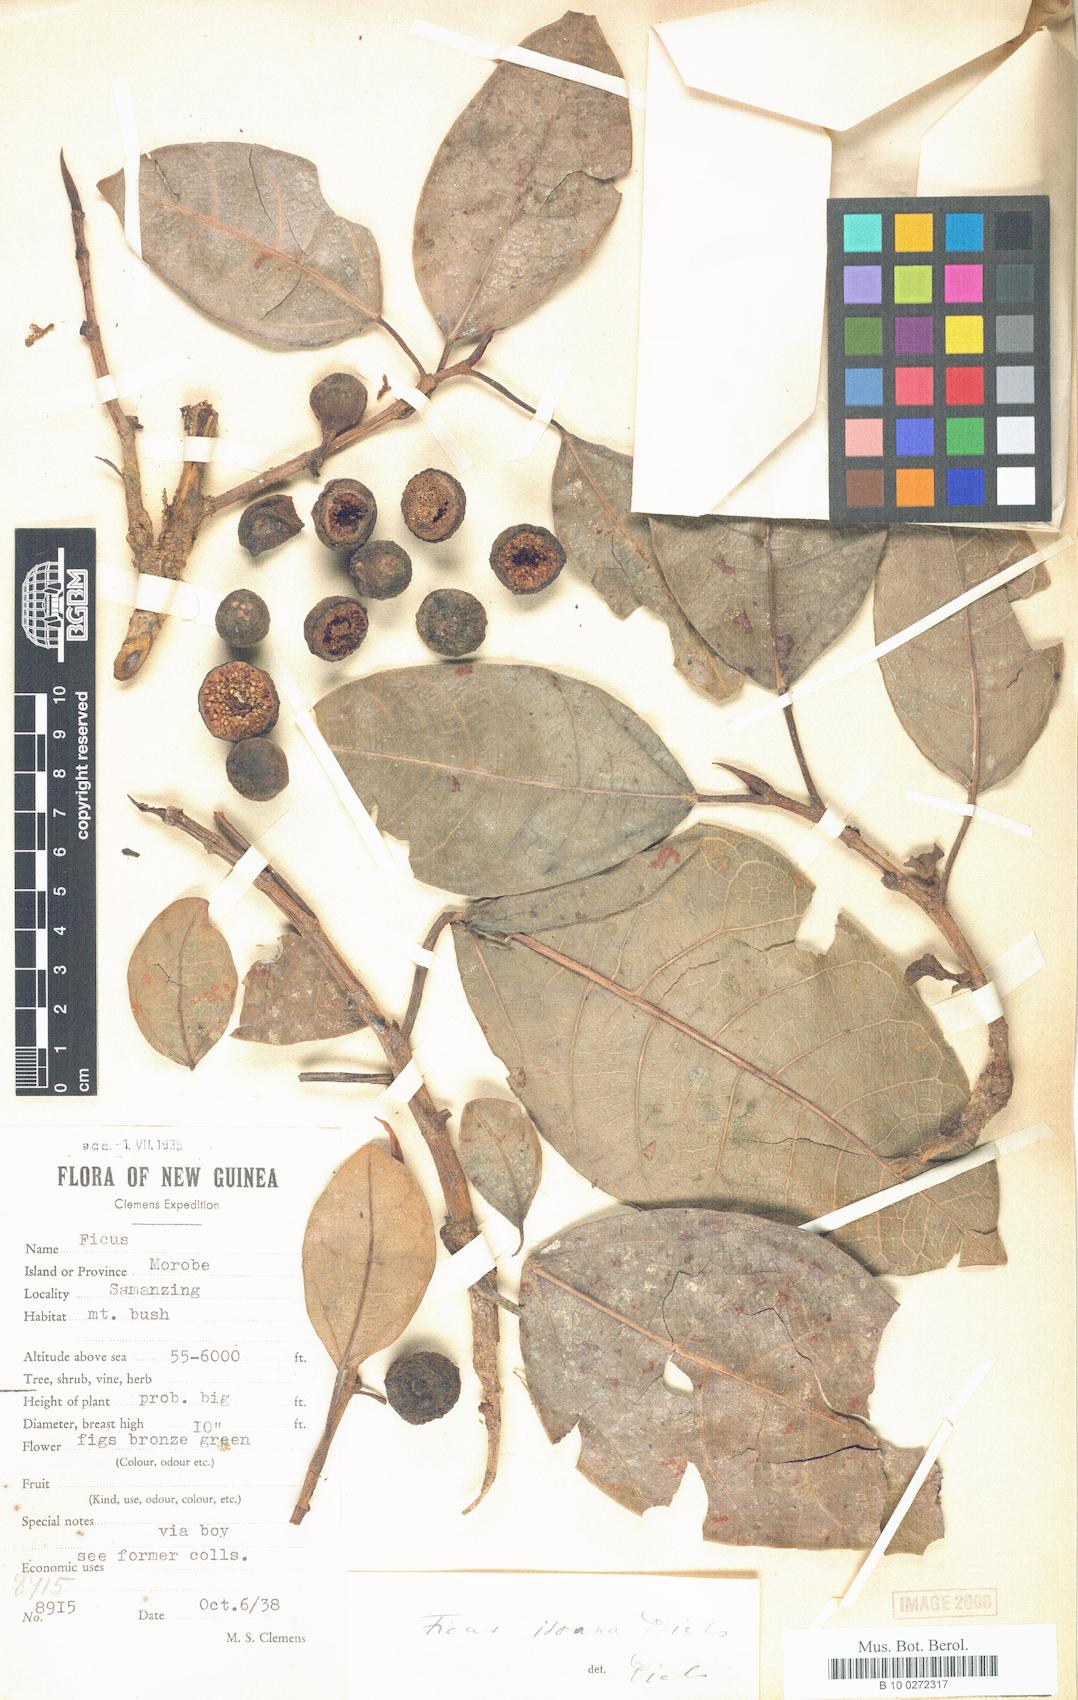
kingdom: Plantae
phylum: Tracheophyta
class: Magnoliopsida
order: Rosales
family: Moraceae
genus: Ficus
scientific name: Ficus itoana
